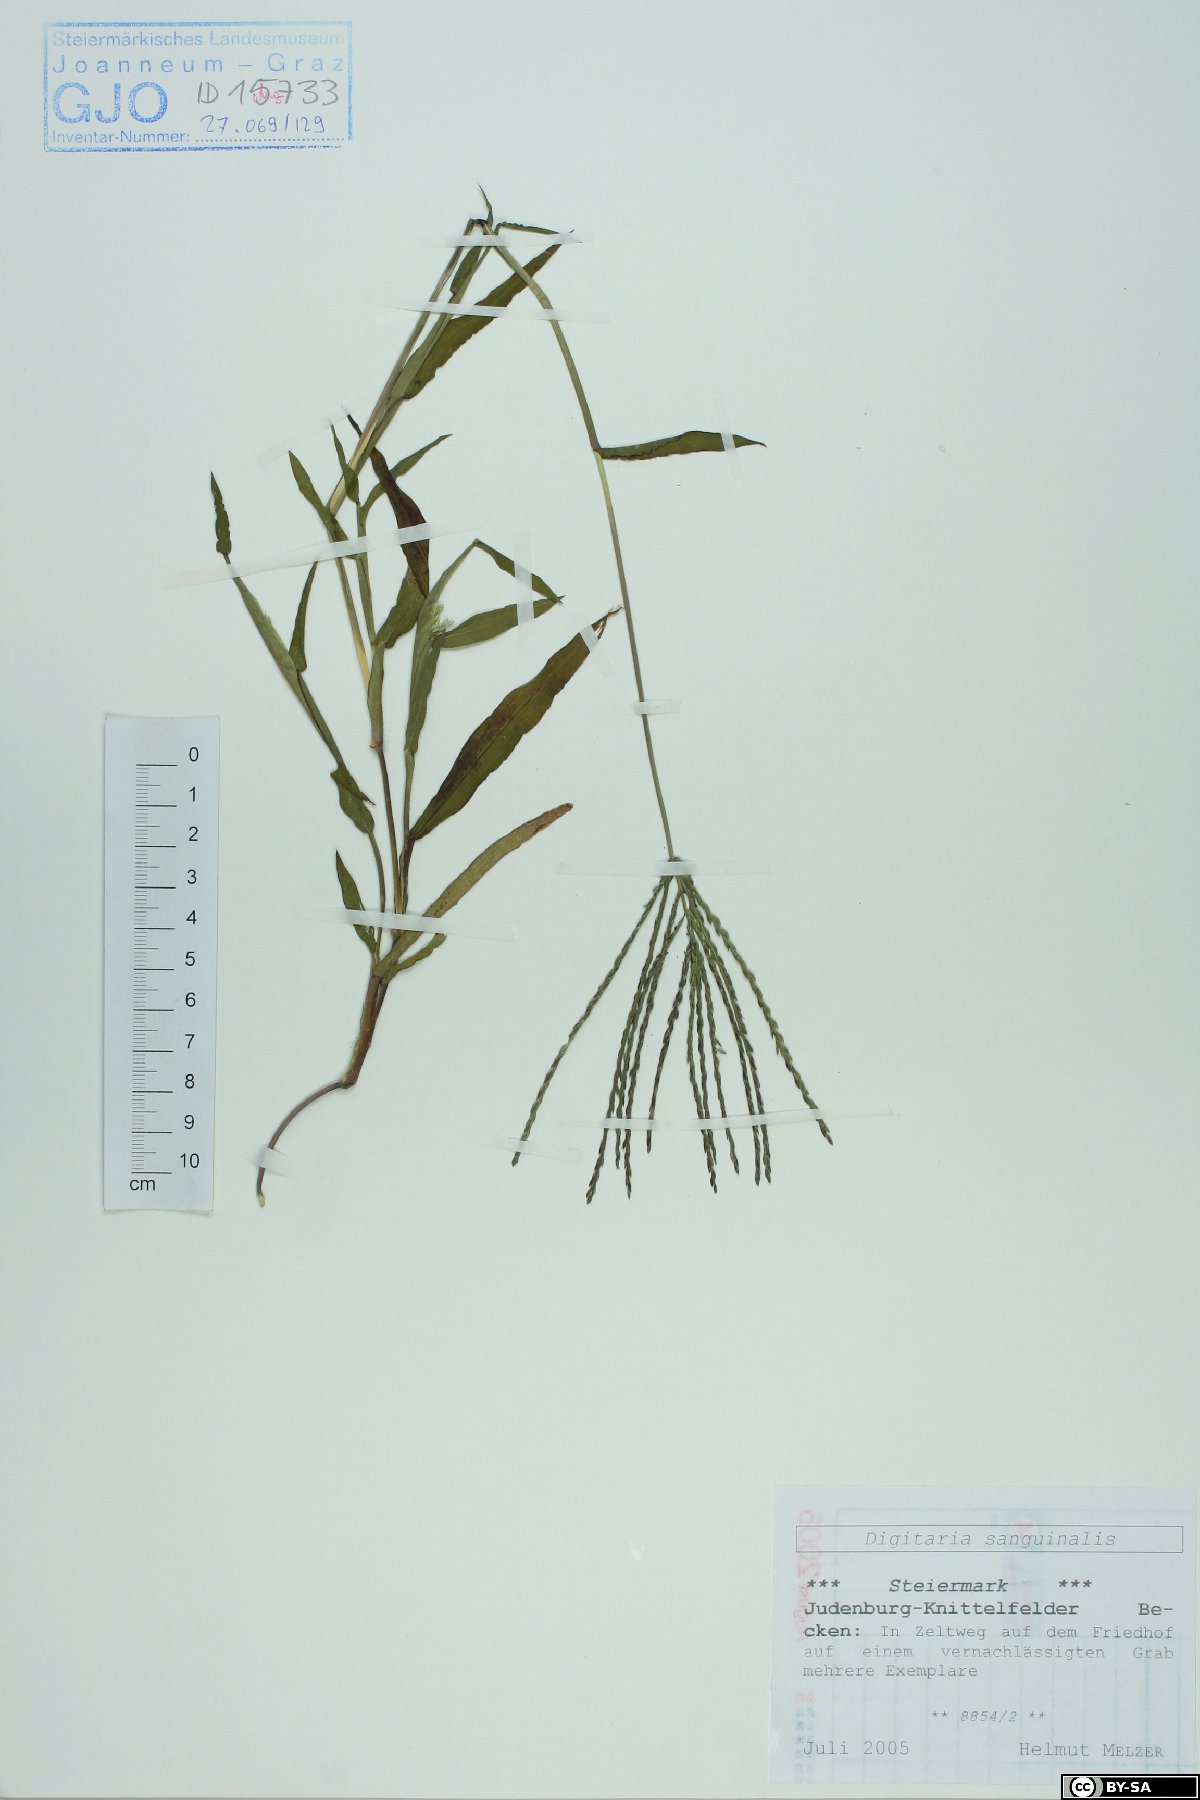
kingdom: Plantae
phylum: Tracheophyta
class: Liliopsida
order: Poales
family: Poaceae
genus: Digitaria
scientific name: Digitaria sanguinalis
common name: Hairy crabgrass
